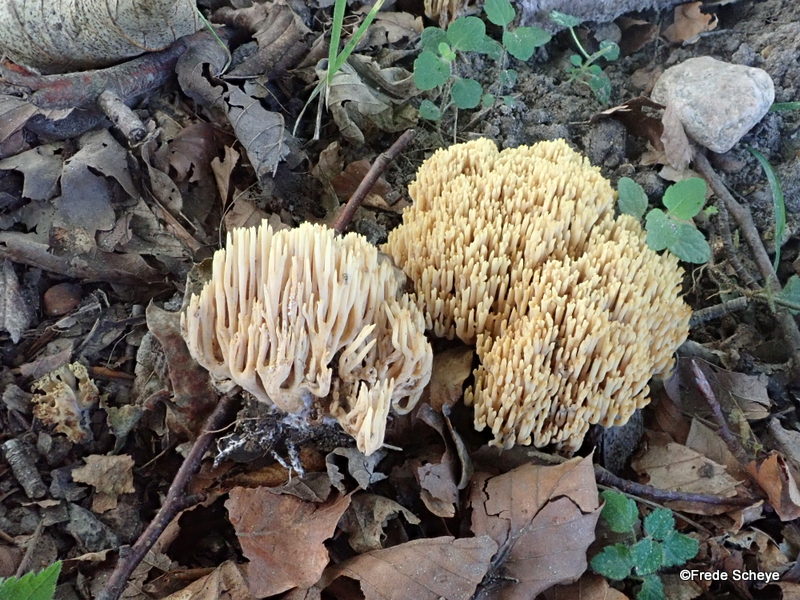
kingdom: Fungi
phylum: Basidiomycota
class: Agaricomycetes
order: Gomphales
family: Gomphaceae
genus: Ramaria
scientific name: Ramaria stricta
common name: rank koralsvamp
